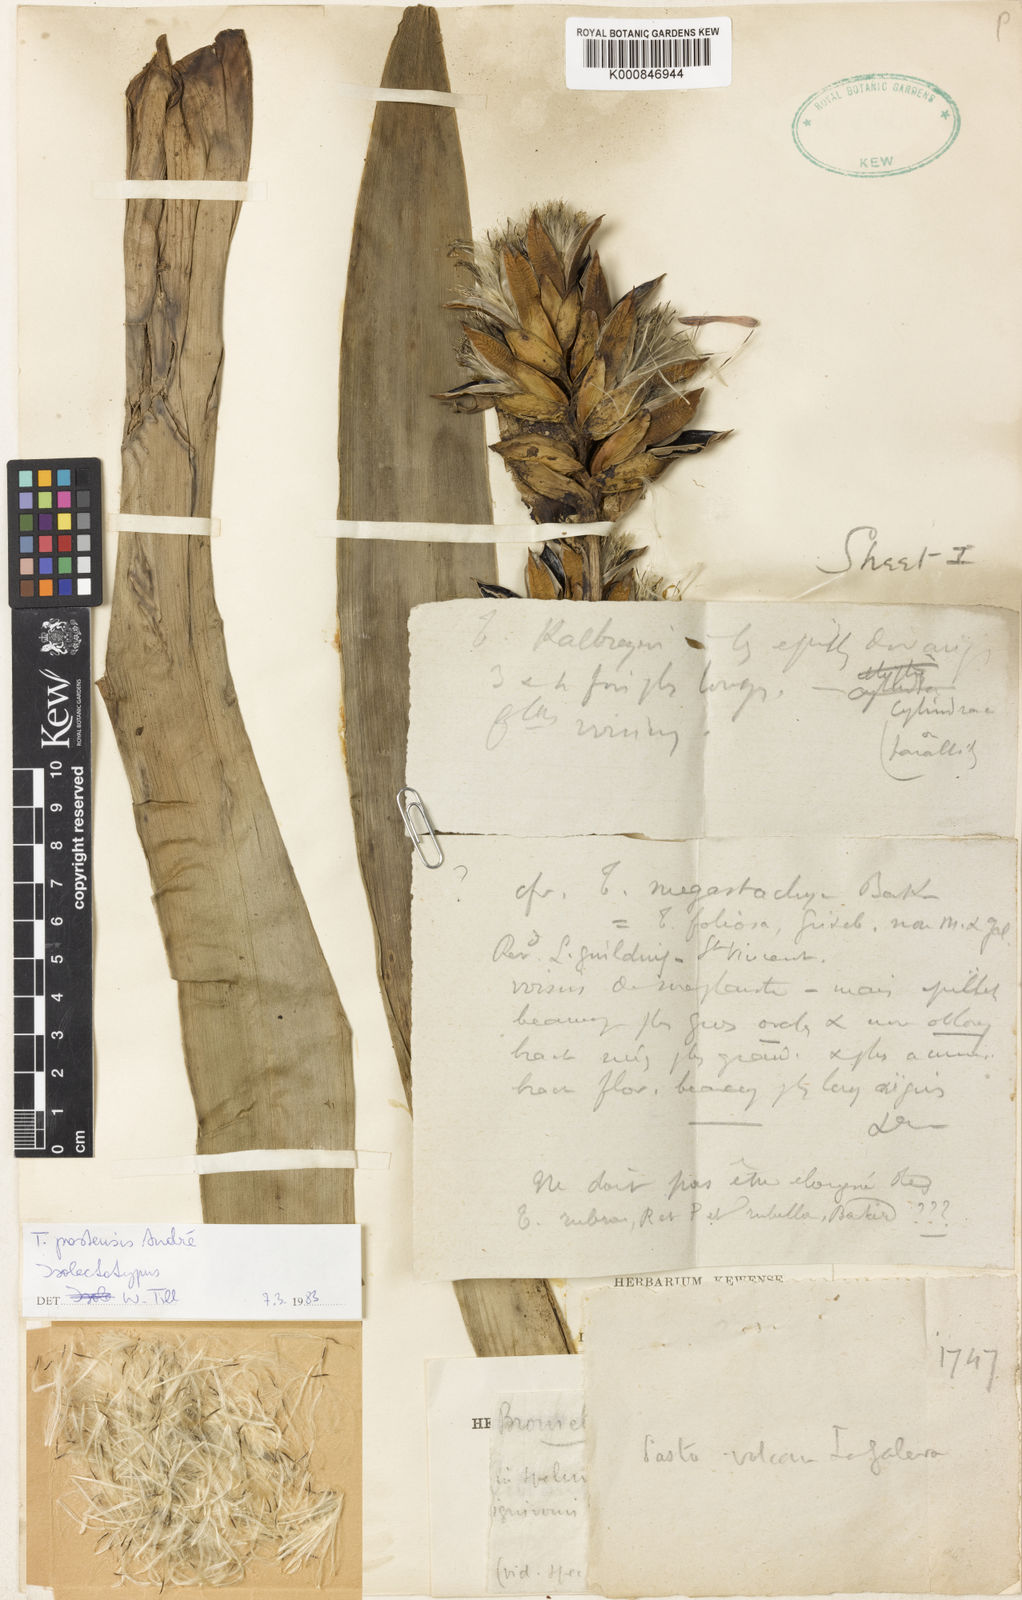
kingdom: Plantae
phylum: Tracheophyta
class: Liliopsida
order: Poales
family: Bromeliaceae
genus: Tillandsia
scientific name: Tillandsia
